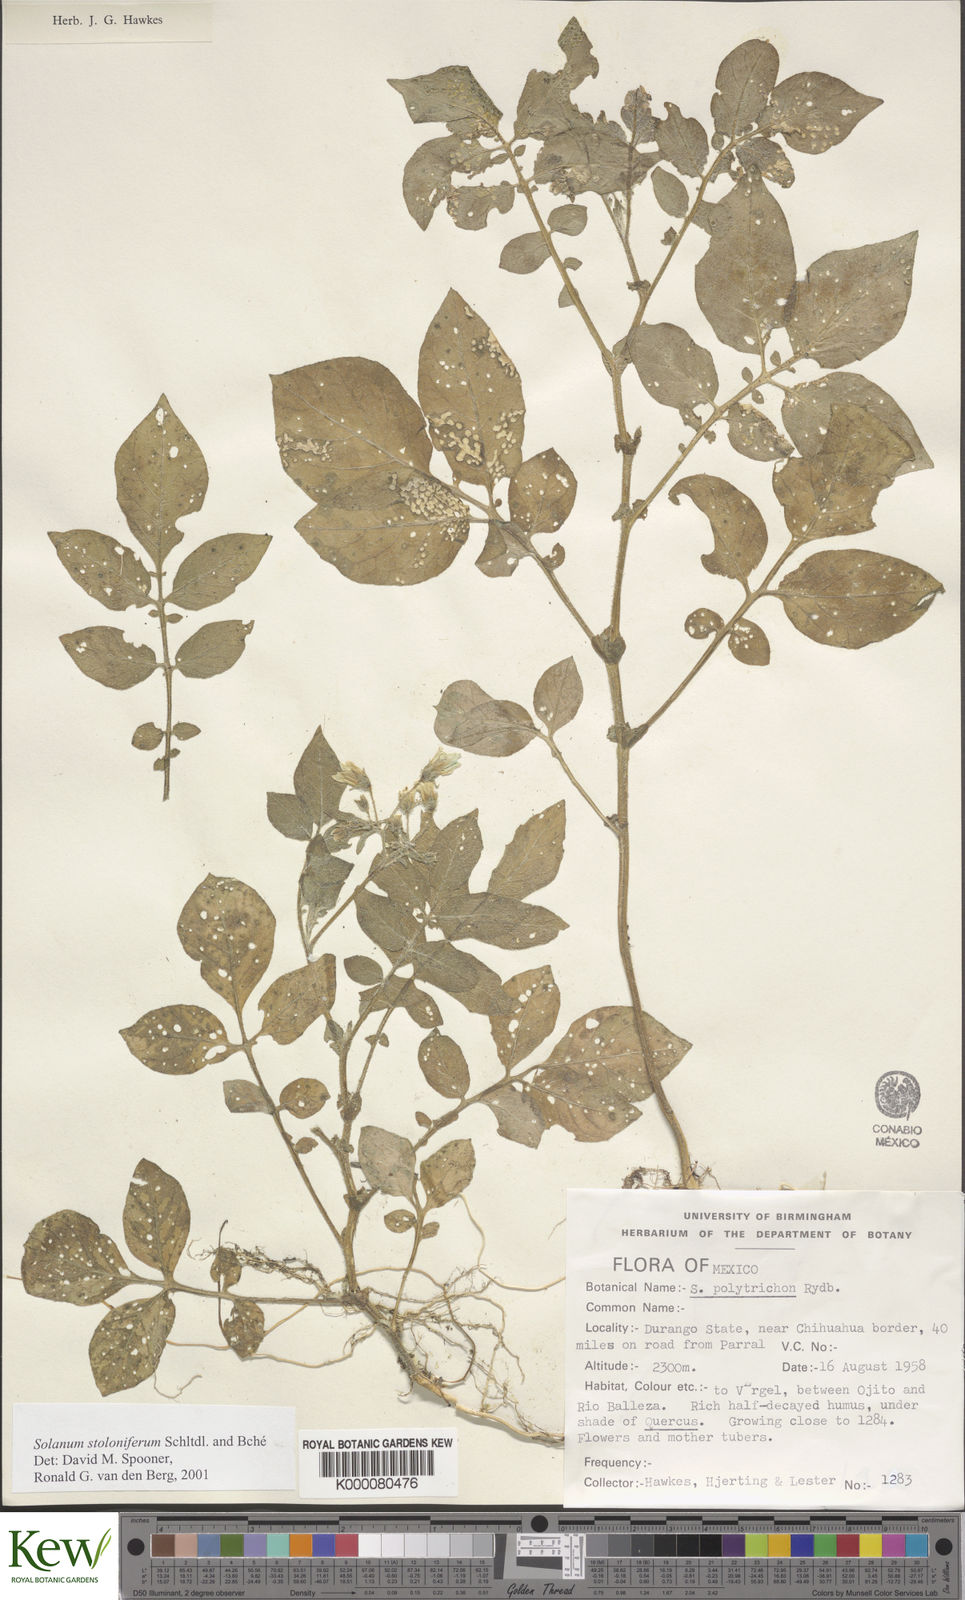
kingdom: Plantae
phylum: Tracheophyta
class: Magnoliopsida
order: Solanales
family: Solanaceae
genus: Solanum
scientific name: Solanum stoloniferum
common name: Fendler's nighshade
